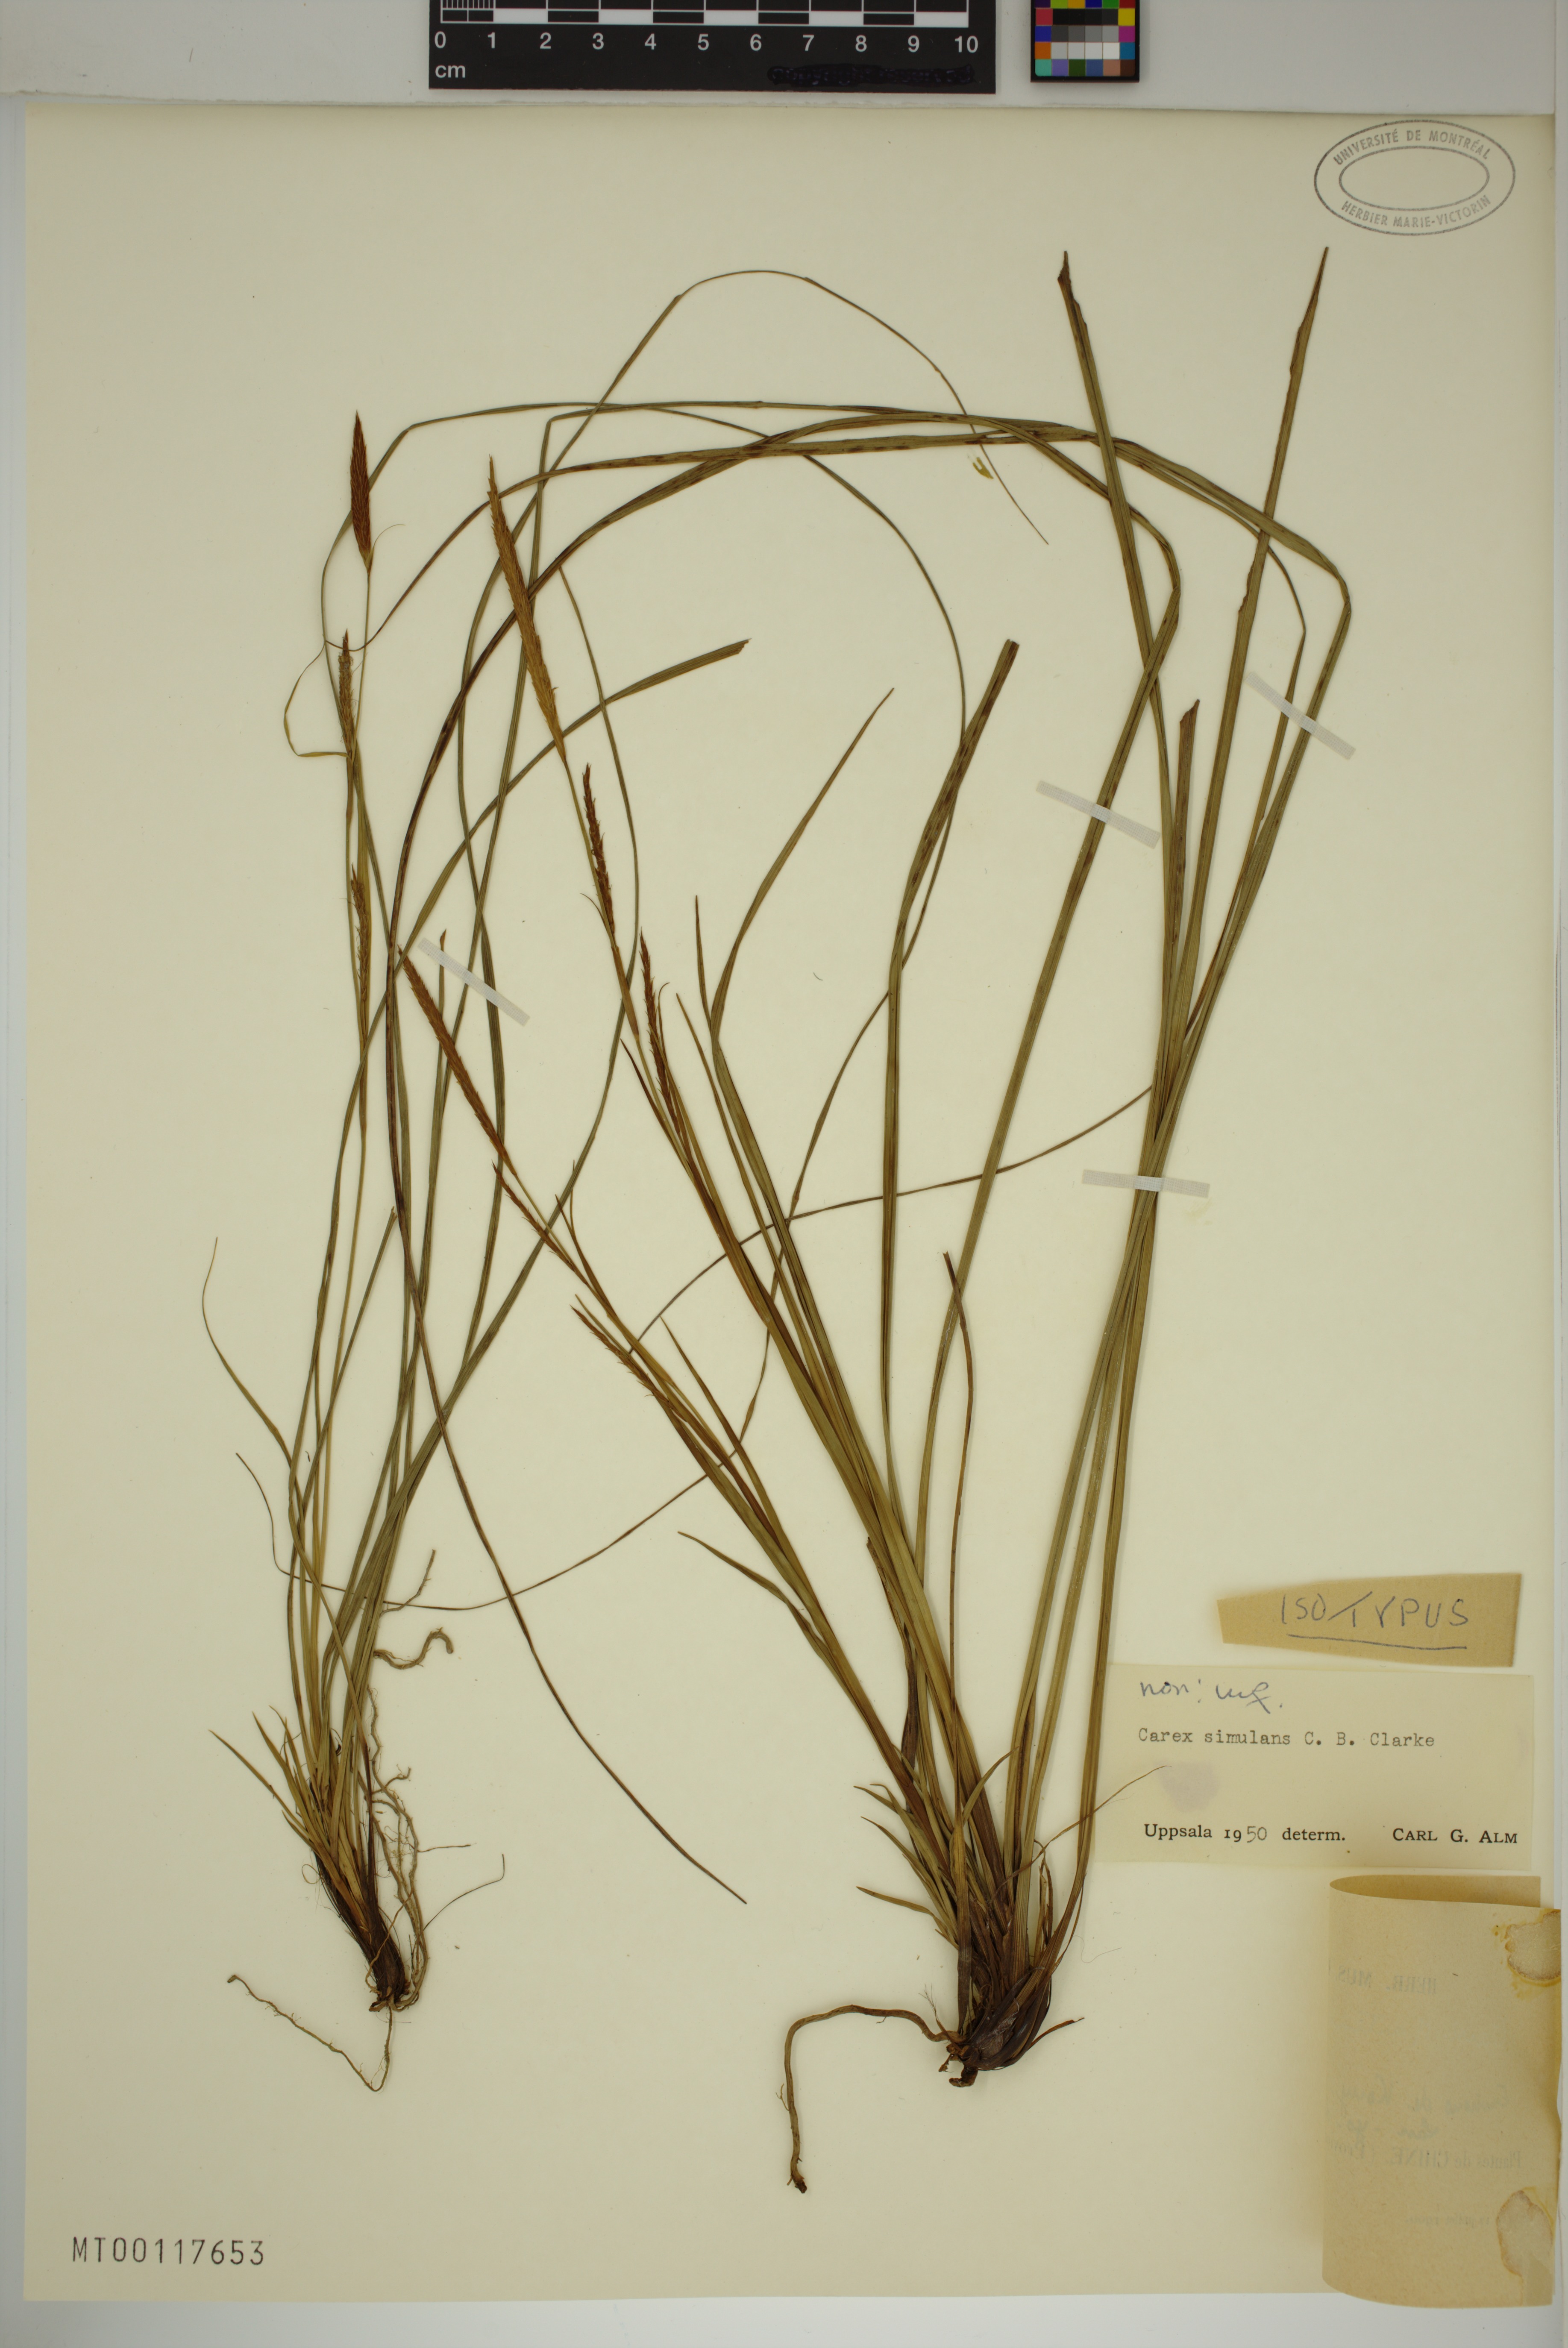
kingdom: Plantae
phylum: Tracheophyta
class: Liliopsida
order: Poales
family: Cyperaceae
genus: Carex
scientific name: Carex simulans
